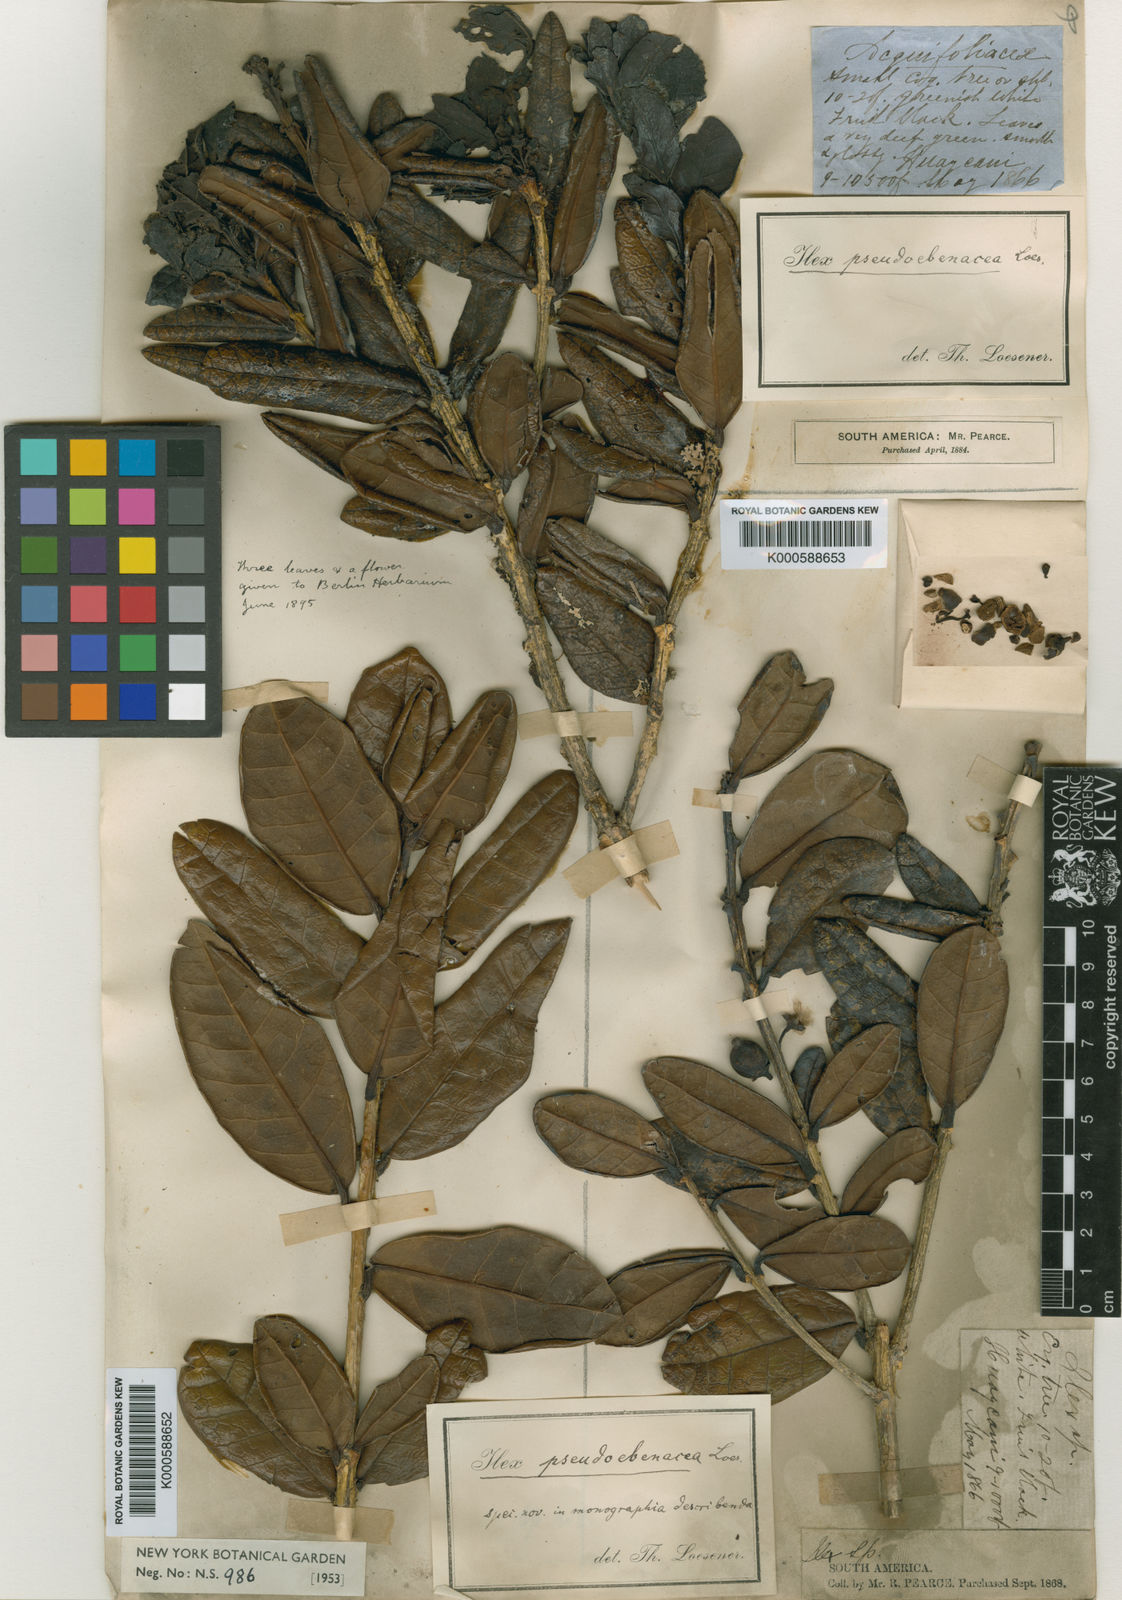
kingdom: Plantae
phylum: Tracheophyta
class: Magnoliopsida
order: Aquifoliales
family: Aquifoliaceae
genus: Ilex
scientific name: Ilex pseudoebenacea
